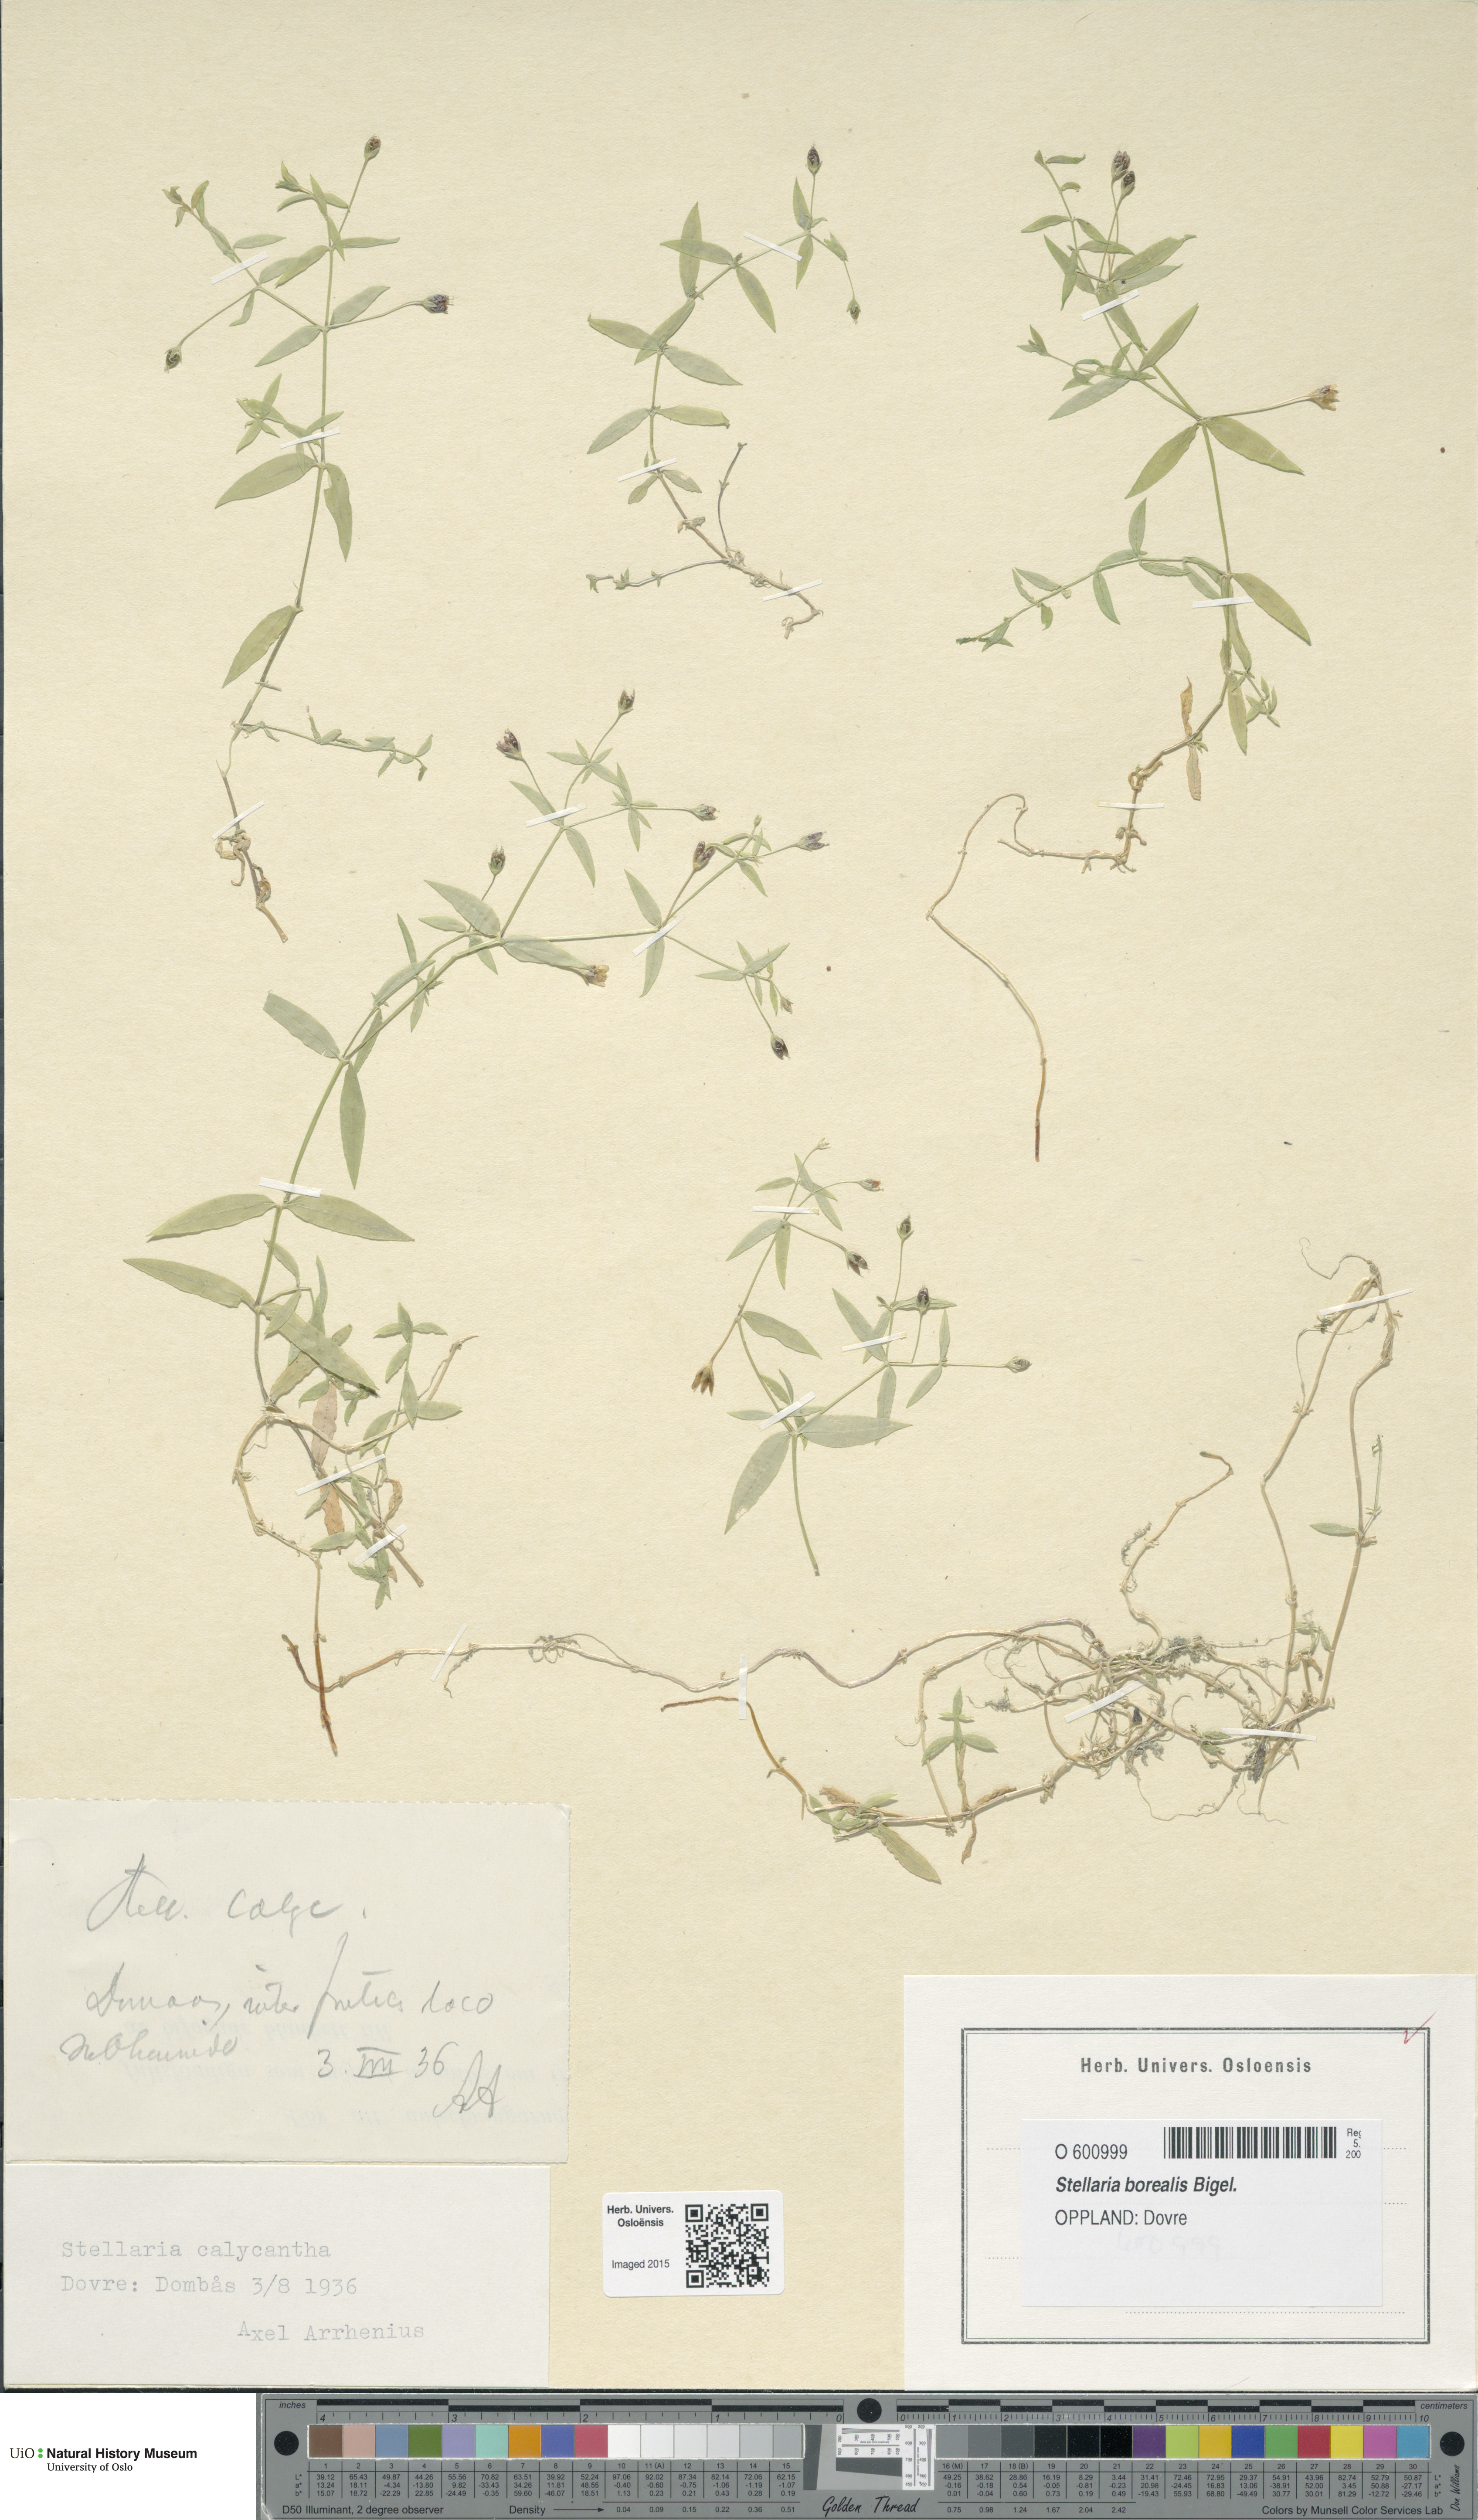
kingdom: Plantae
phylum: Tracheophyta
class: Magnoliopsida
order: Caryophyllales
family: Caryophyllaceae
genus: Stellaria
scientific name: Stellaria borealis
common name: Boreal starwort
